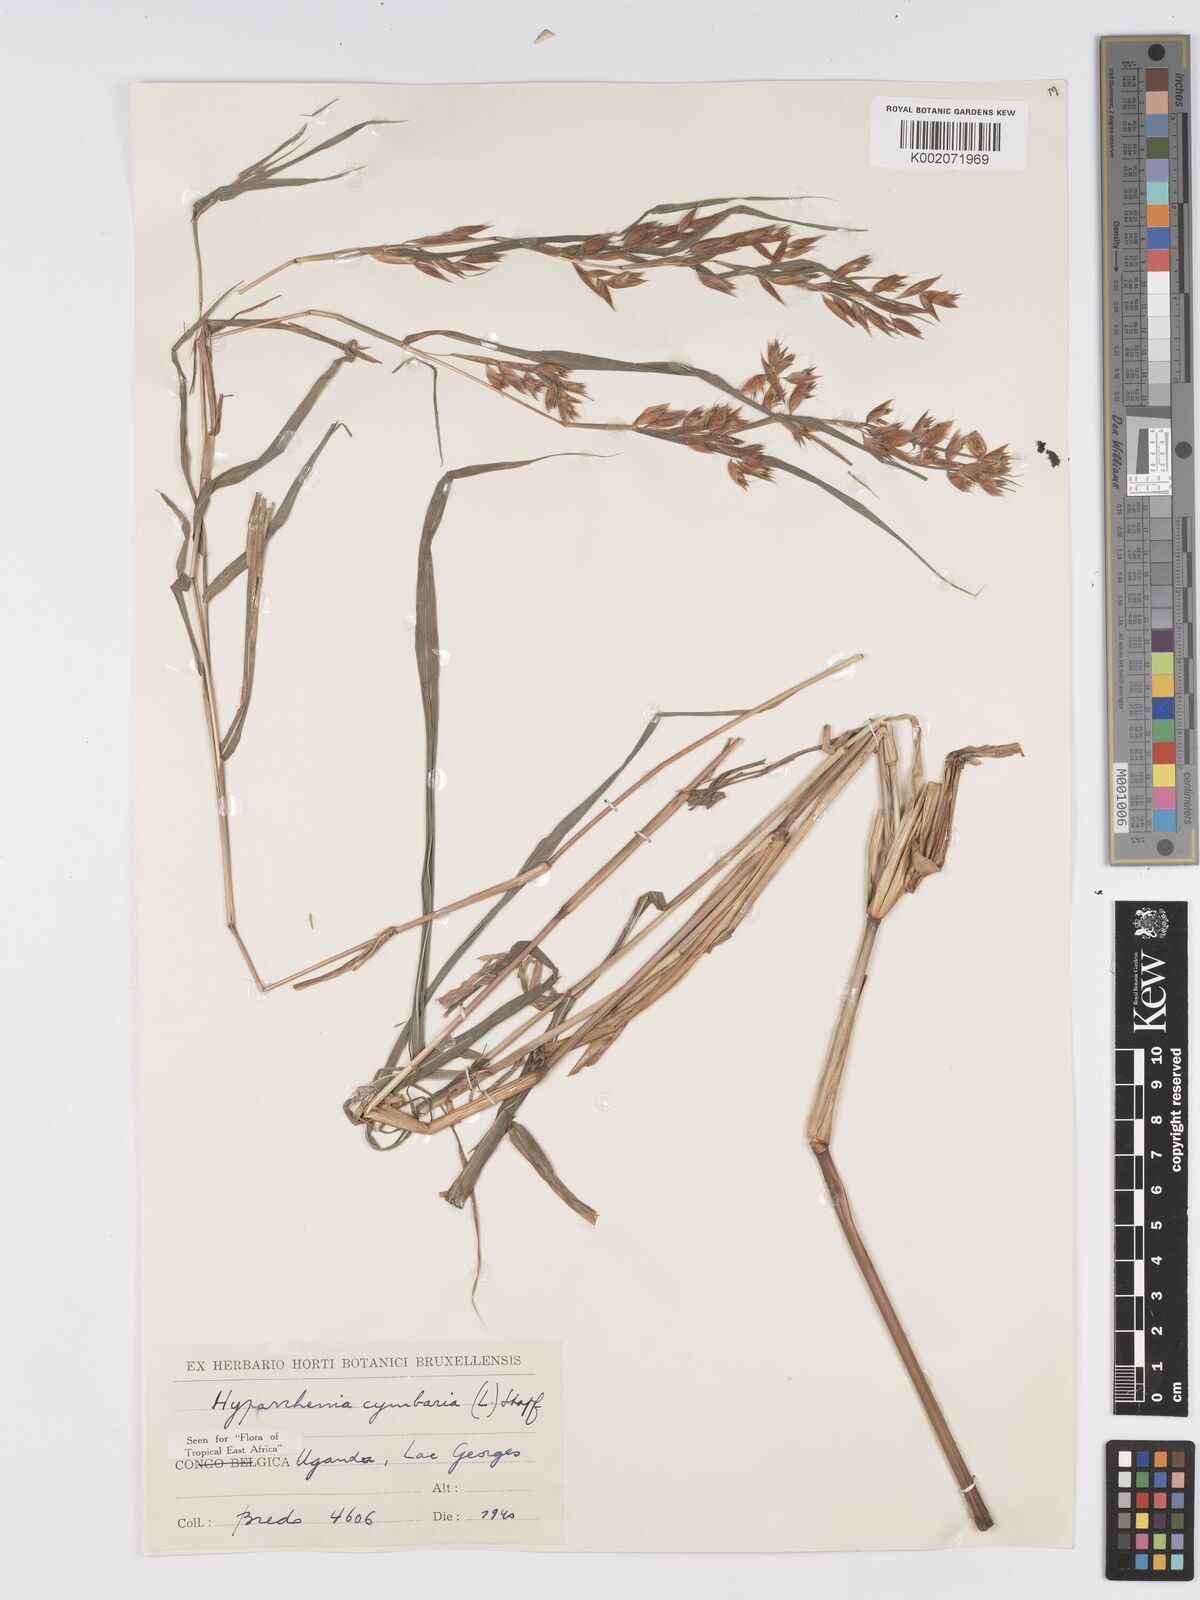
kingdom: Plantae
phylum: Tracheophyta
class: Liliopsida
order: Poales
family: Poaceae
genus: Hyparrhenia
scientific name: Hyparrhenia cymbaria
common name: Boat thatching grass
